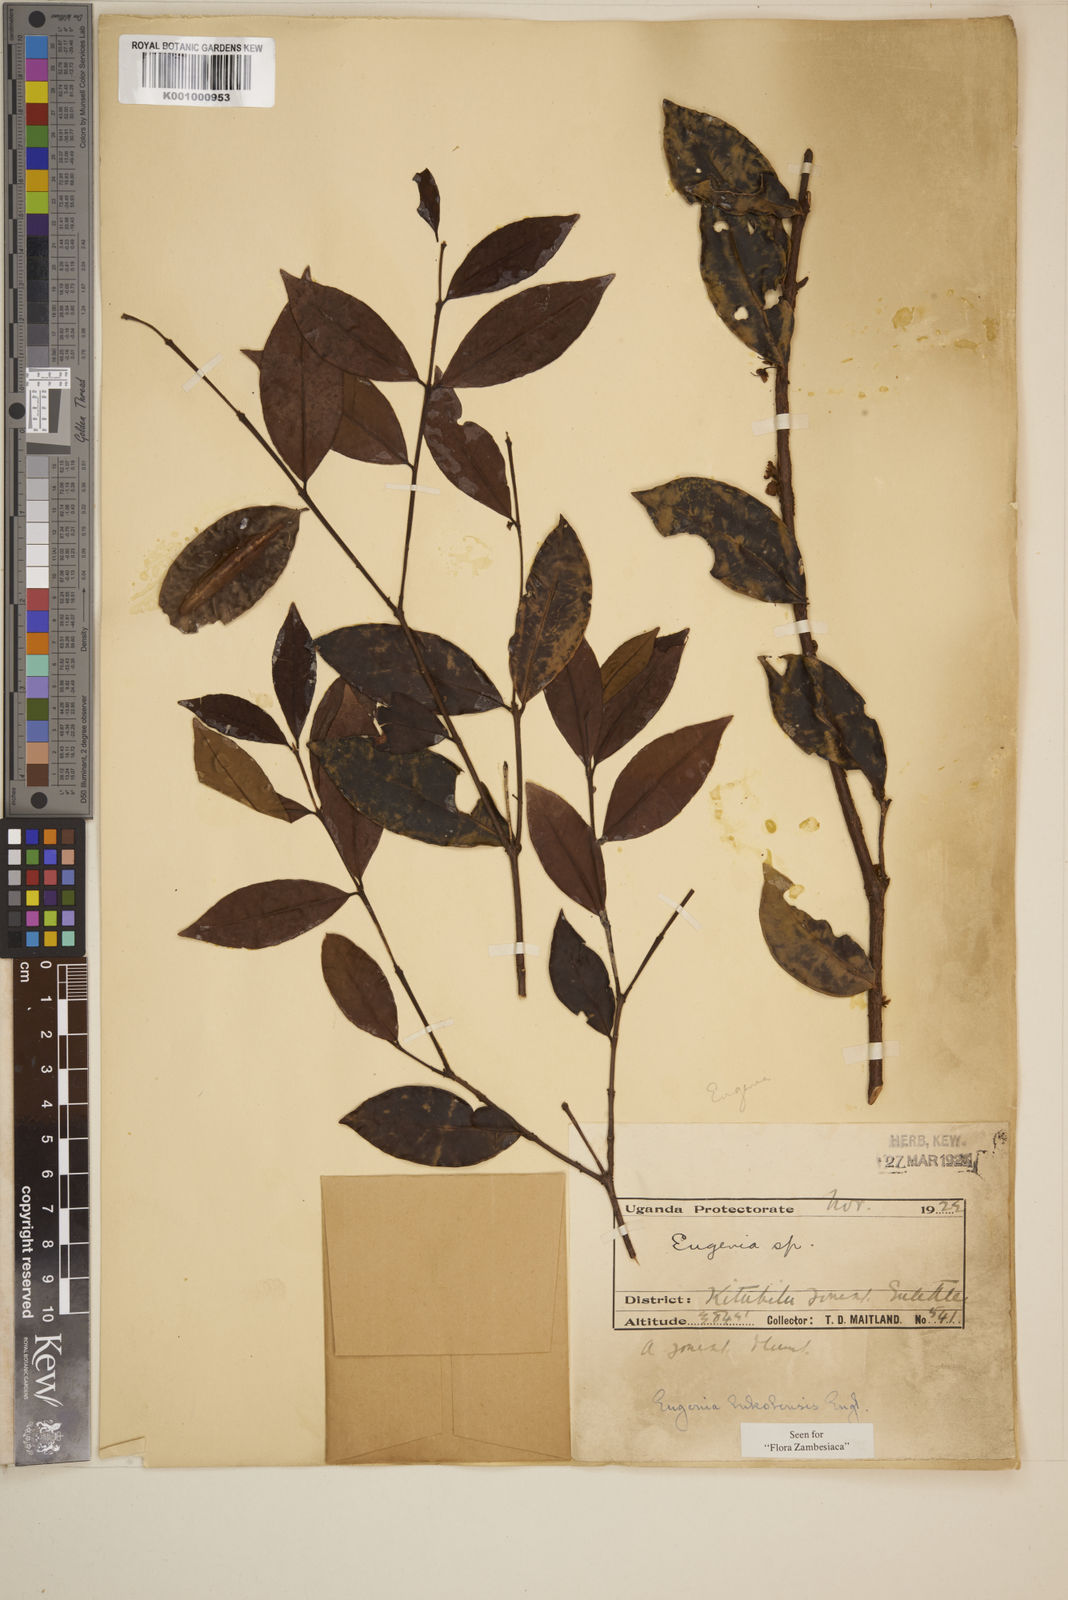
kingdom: Plantae
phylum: Tracheophyta
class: Magnoliopsida
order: Myrtales
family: Myrtaceae
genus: Eugenia
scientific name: Eugenia bukobensis
